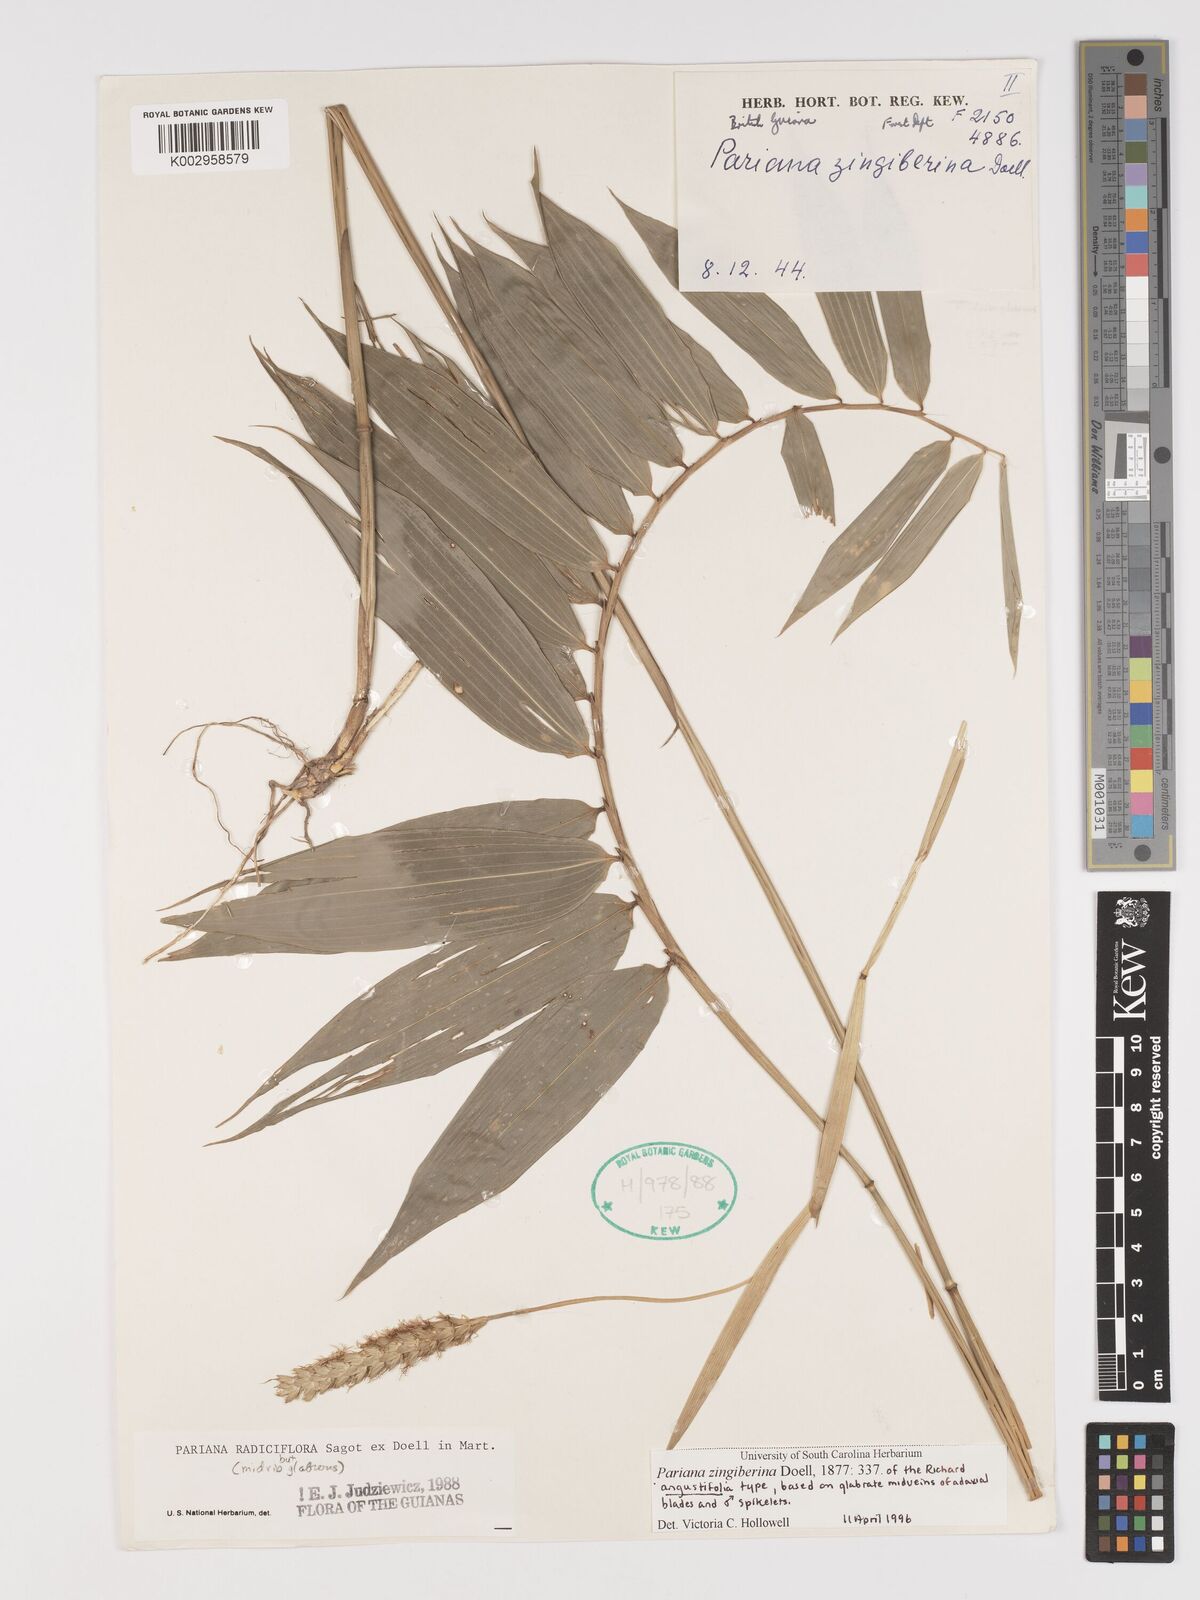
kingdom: Plantae
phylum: Tracheophyta
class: Liliopsida
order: Poales
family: Poaceae
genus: Pariana
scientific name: Pariana radiciflora
